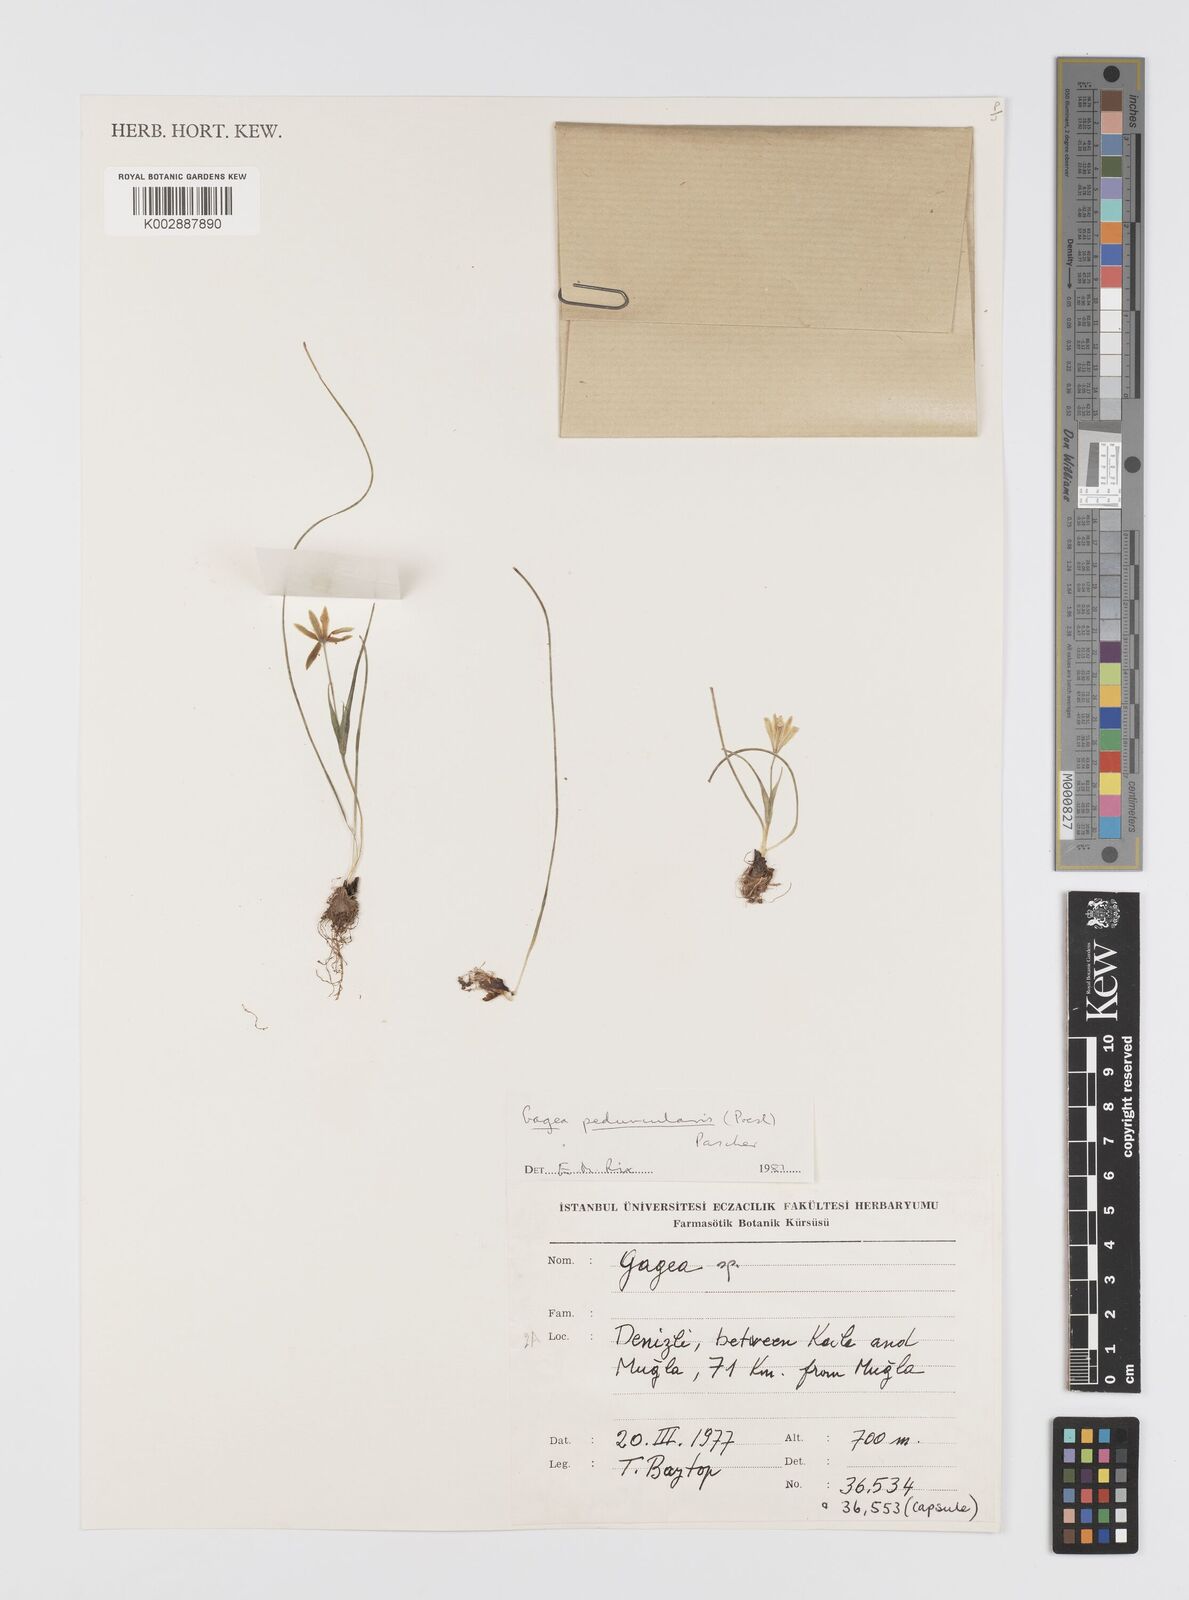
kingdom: Plantae
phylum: Tracheophyta
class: Liliopsida
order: Liliales
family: Liliaceae
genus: Gagea
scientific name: Gagea peduncularis
